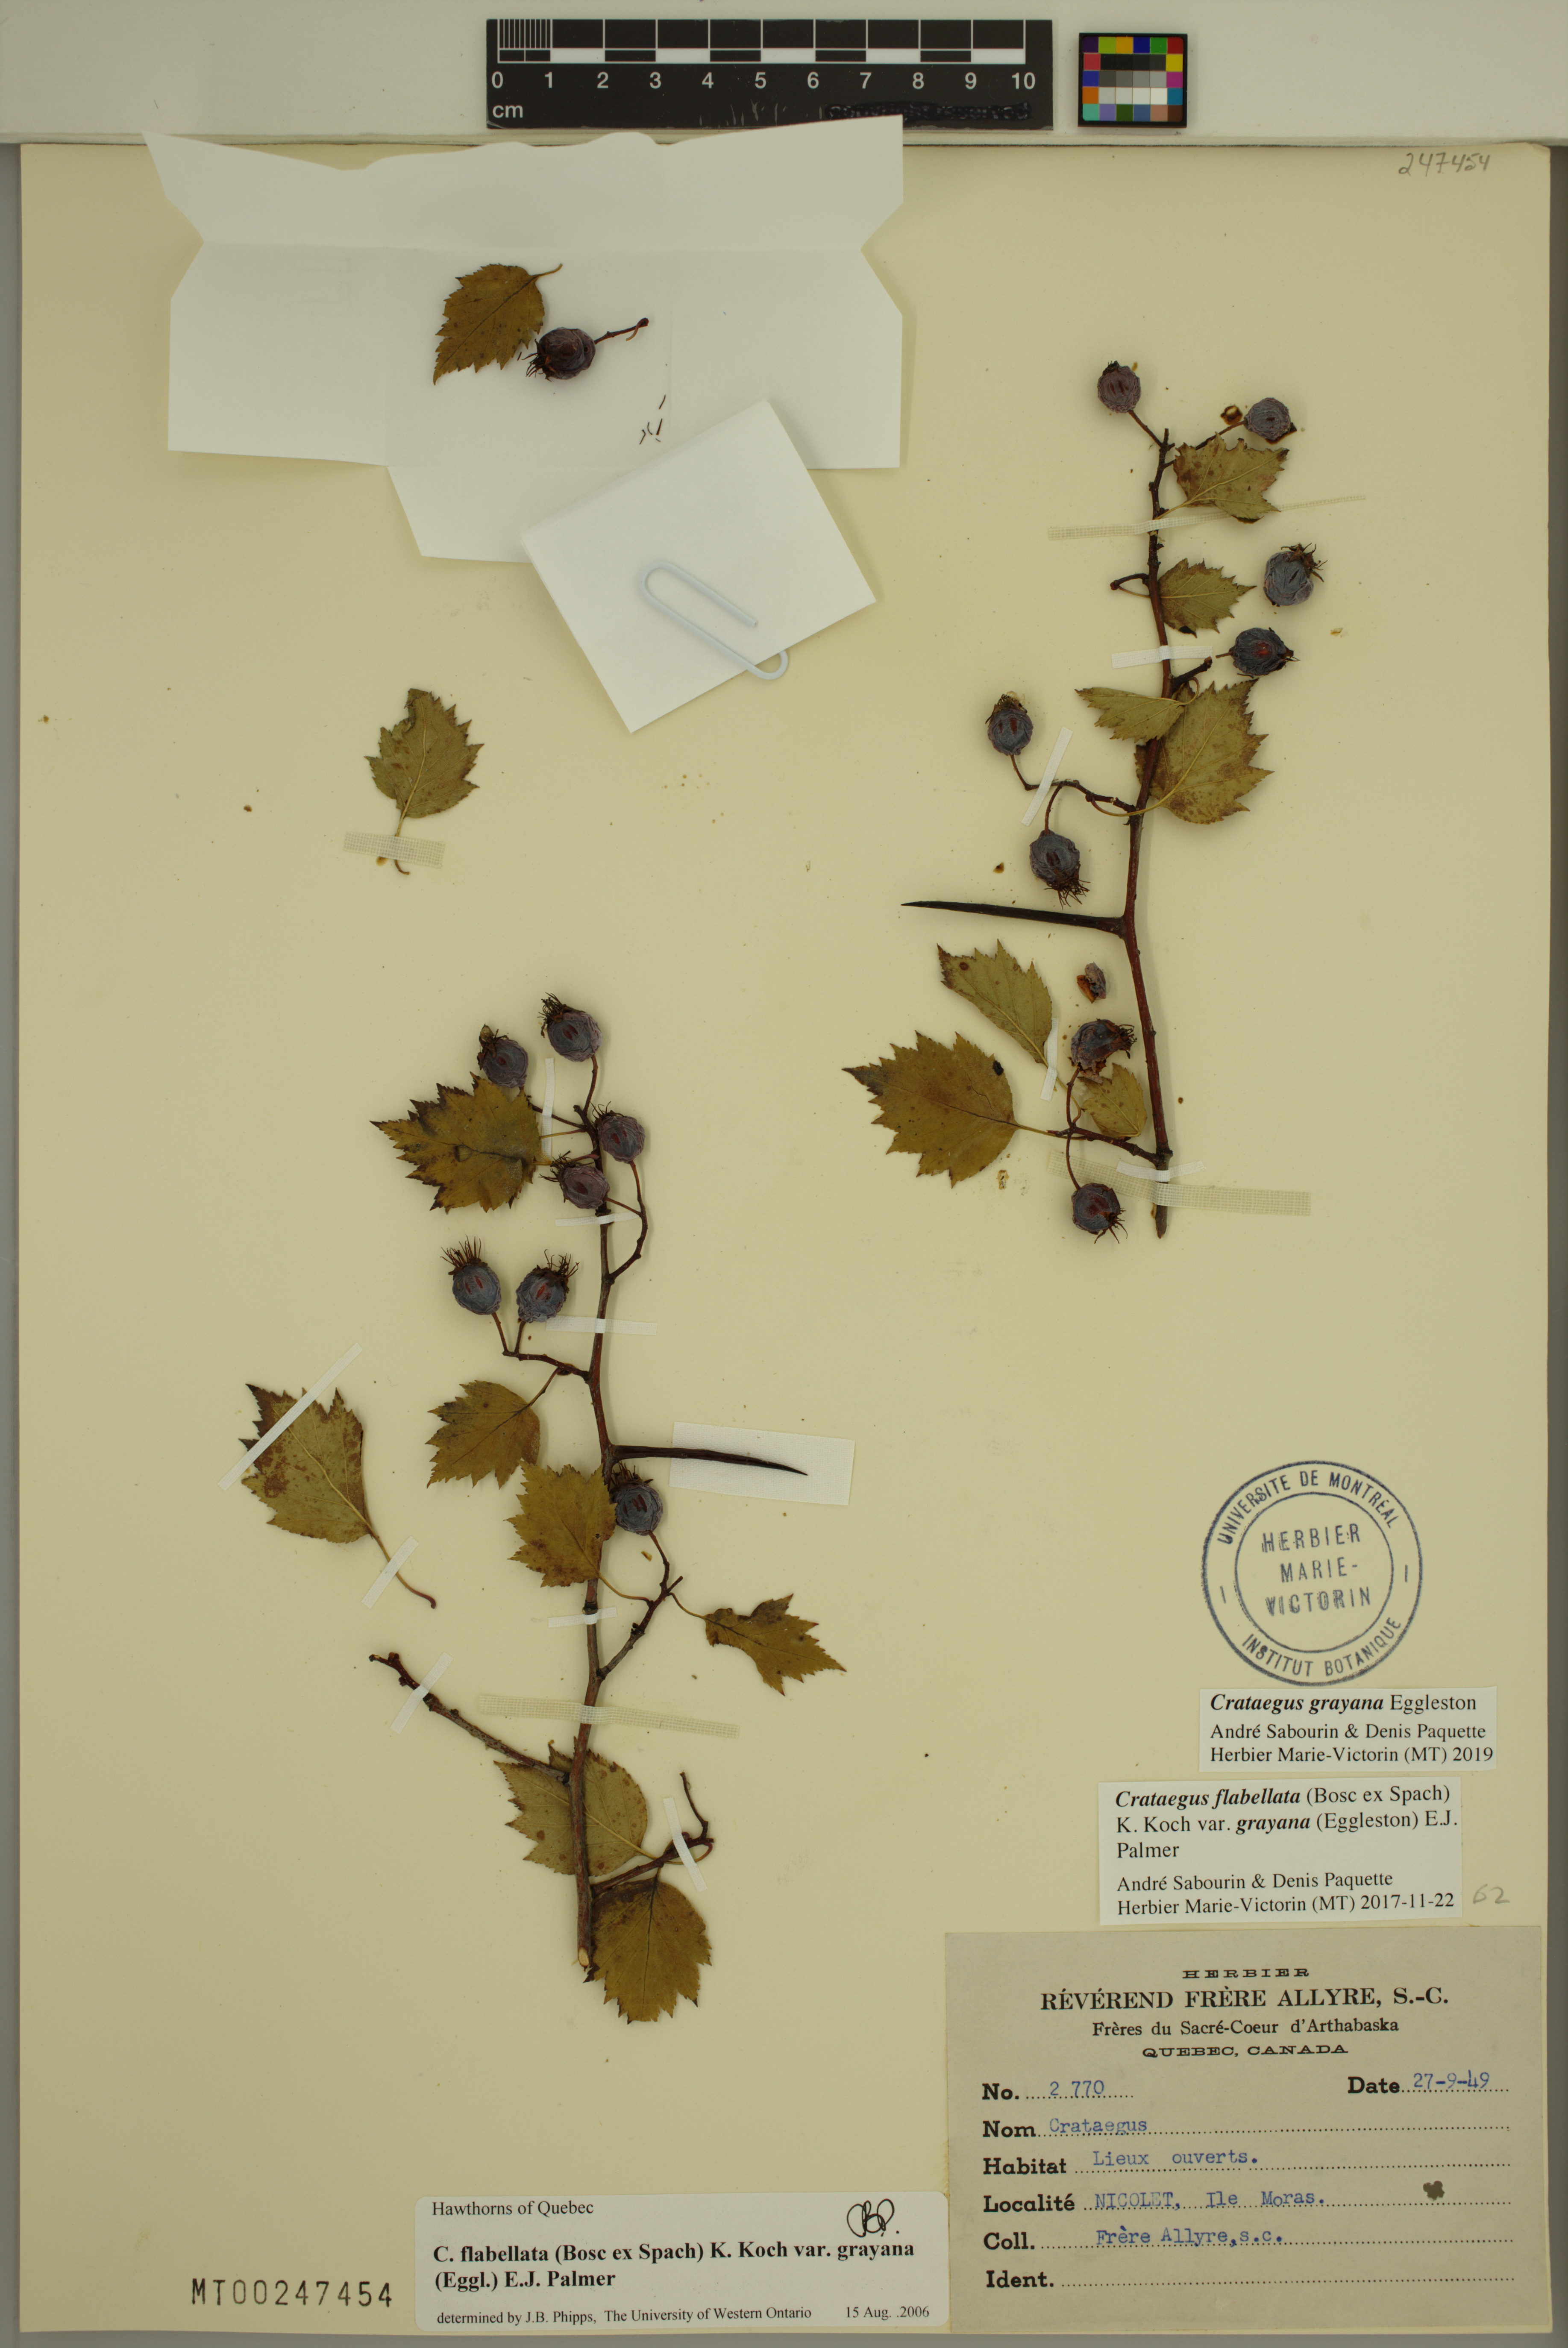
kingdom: Plantae
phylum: Tracheophyta
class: Magnoliopsida
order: Rosales
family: Rosaceae
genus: Crataegus
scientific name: Crataegus schuettei
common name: Schuette's hawthorn
